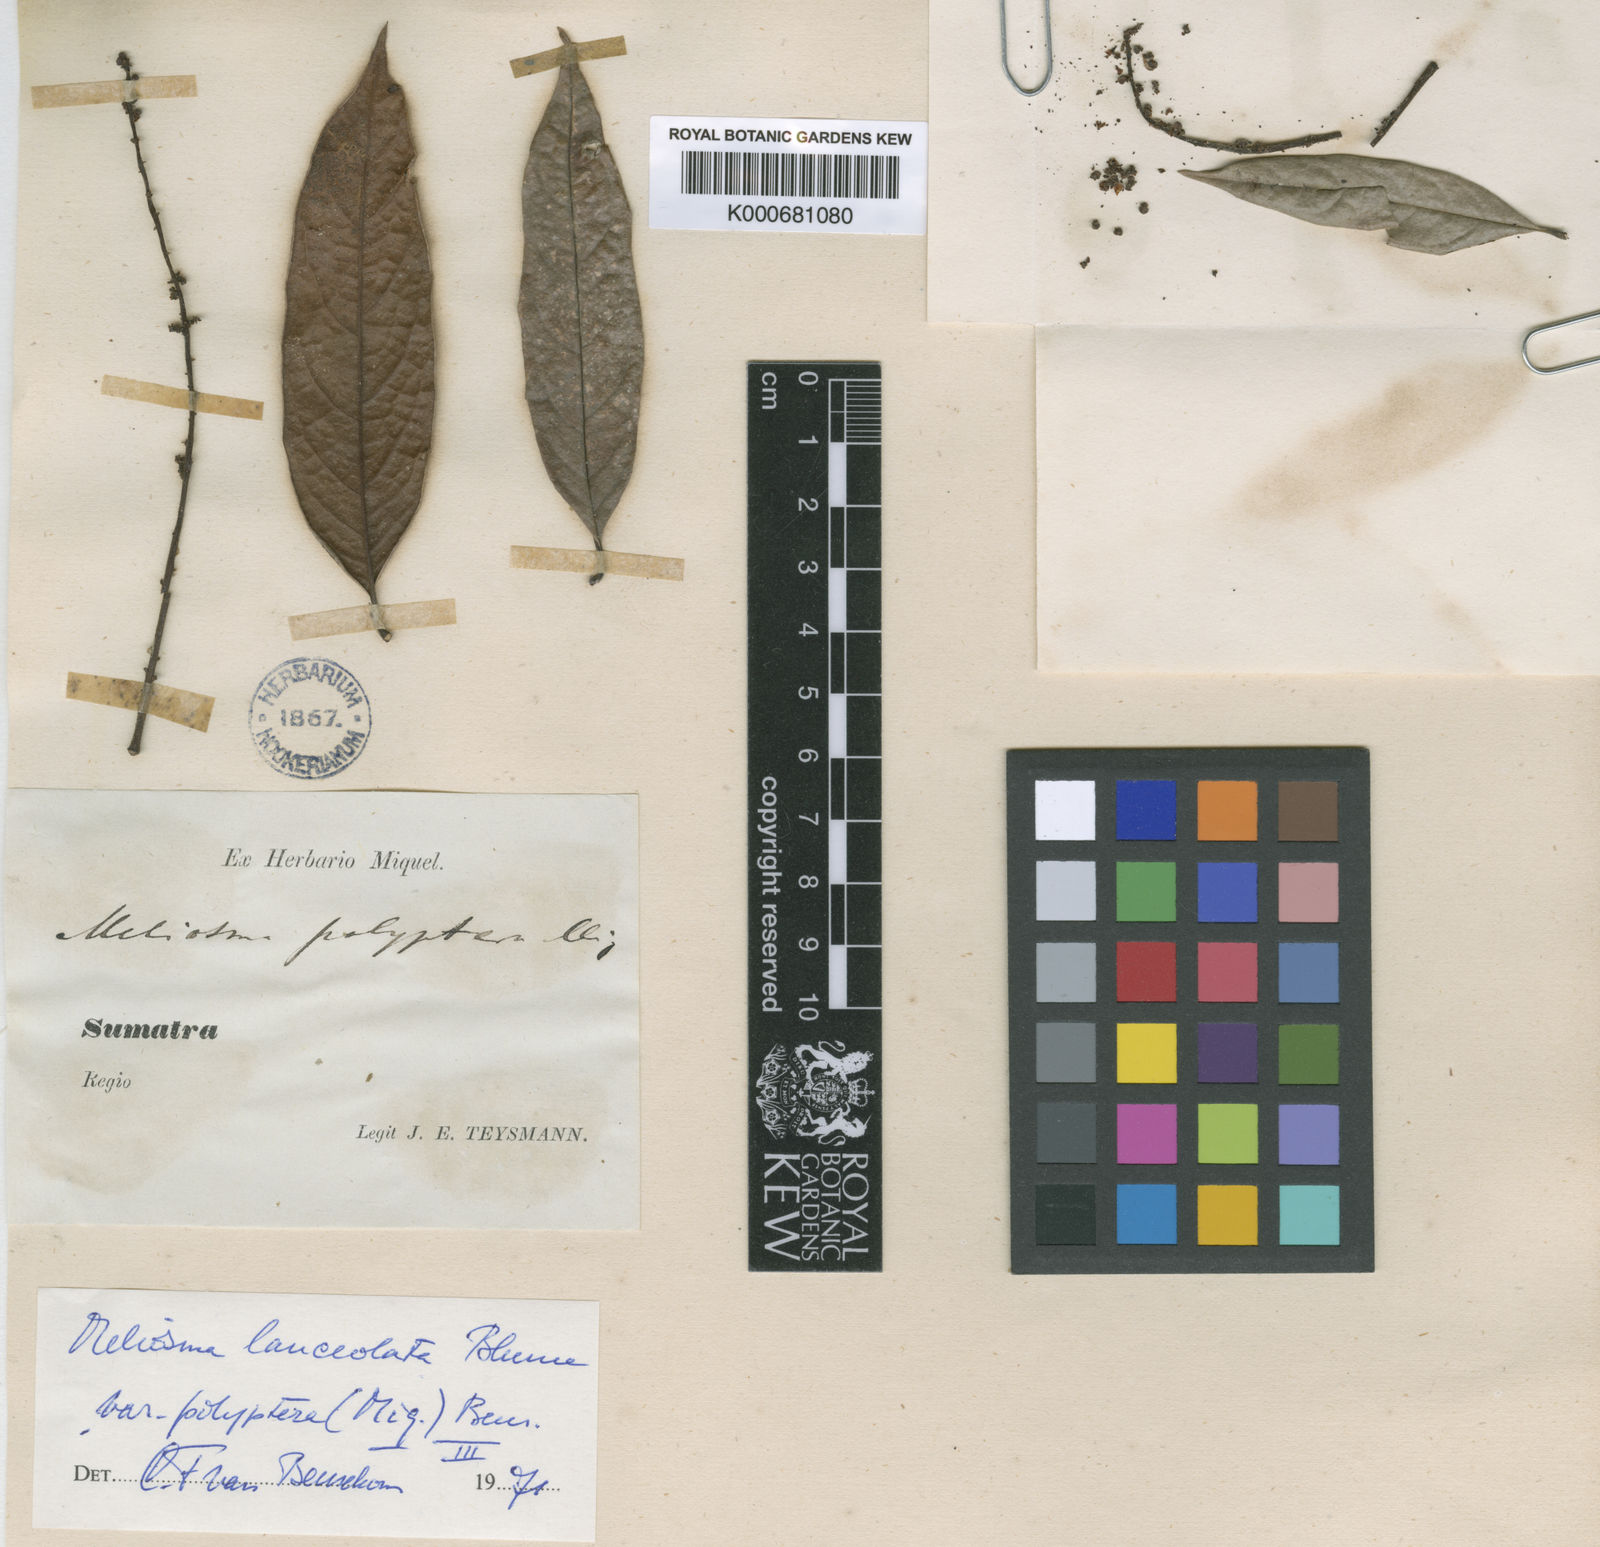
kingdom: Plantae
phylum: Tracheophyta
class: Magnoliopsida
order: Proteales
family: Sabiaceae
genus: Meliosma
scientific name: Meliosma lanceolata
